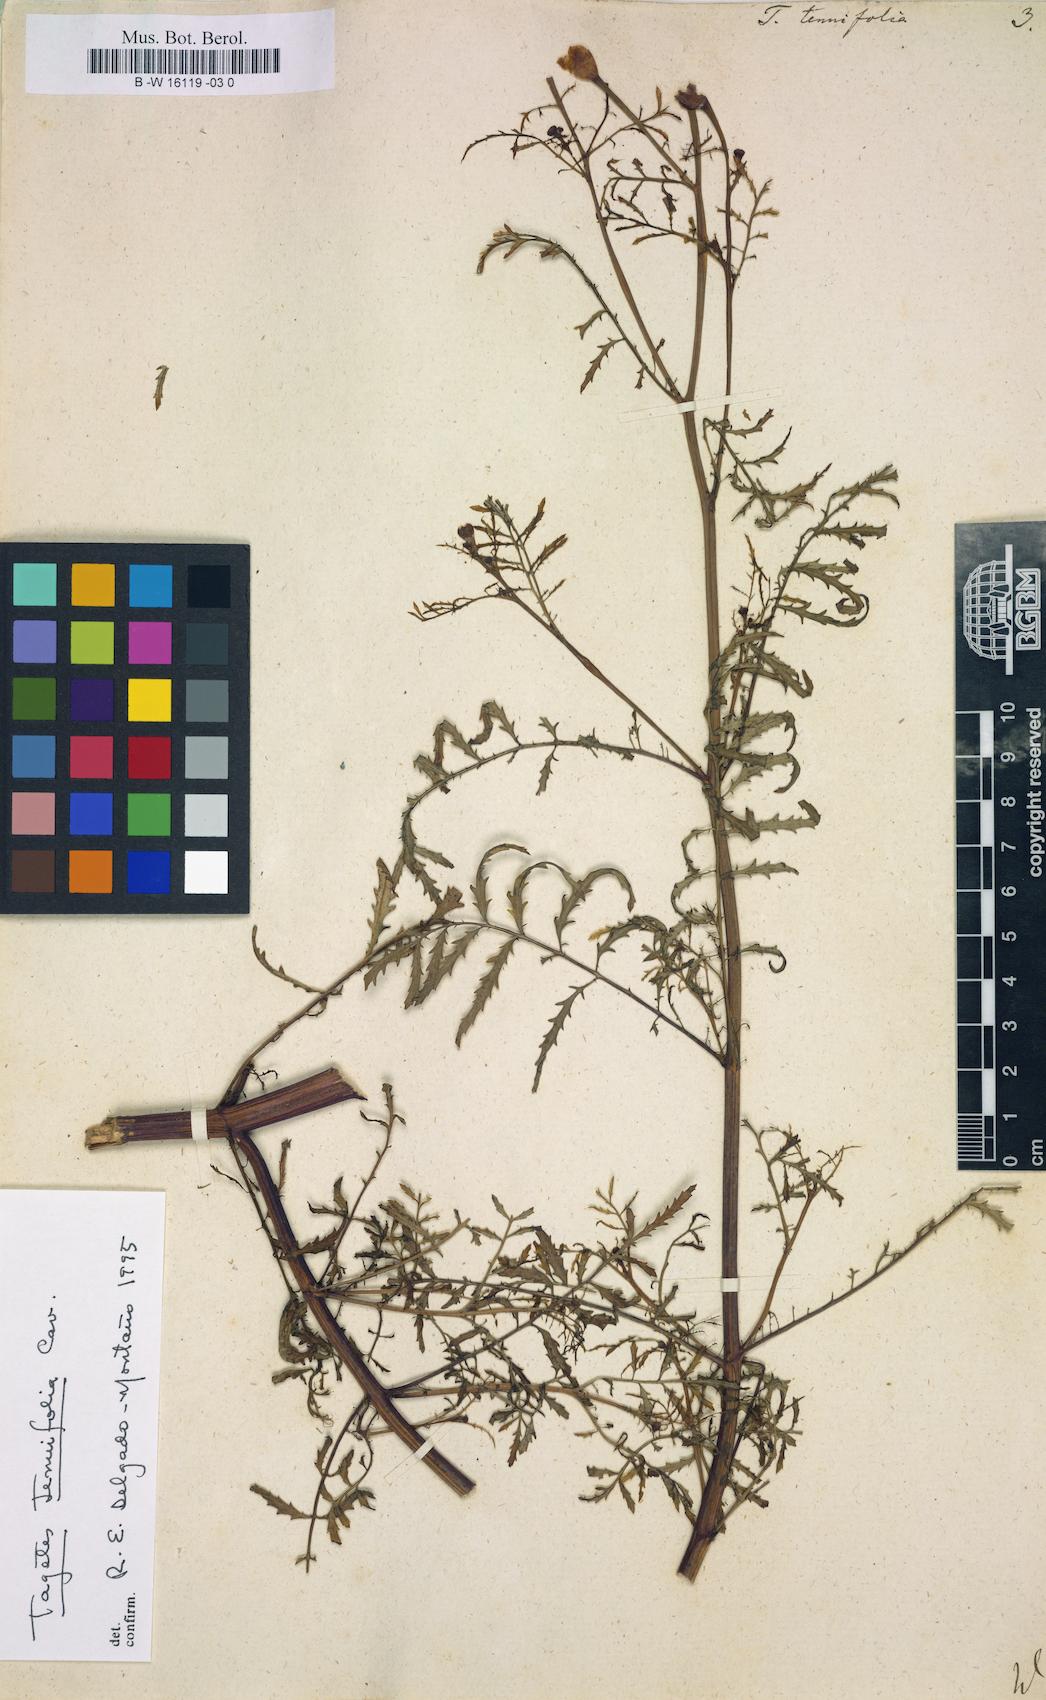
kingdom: Plantae
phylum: Tracheophyta
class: Magnoliopsida
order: Asterales
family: Asteraceae
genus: Tagetes
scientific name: Tagetes tenuifolia
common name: Signet marigold
